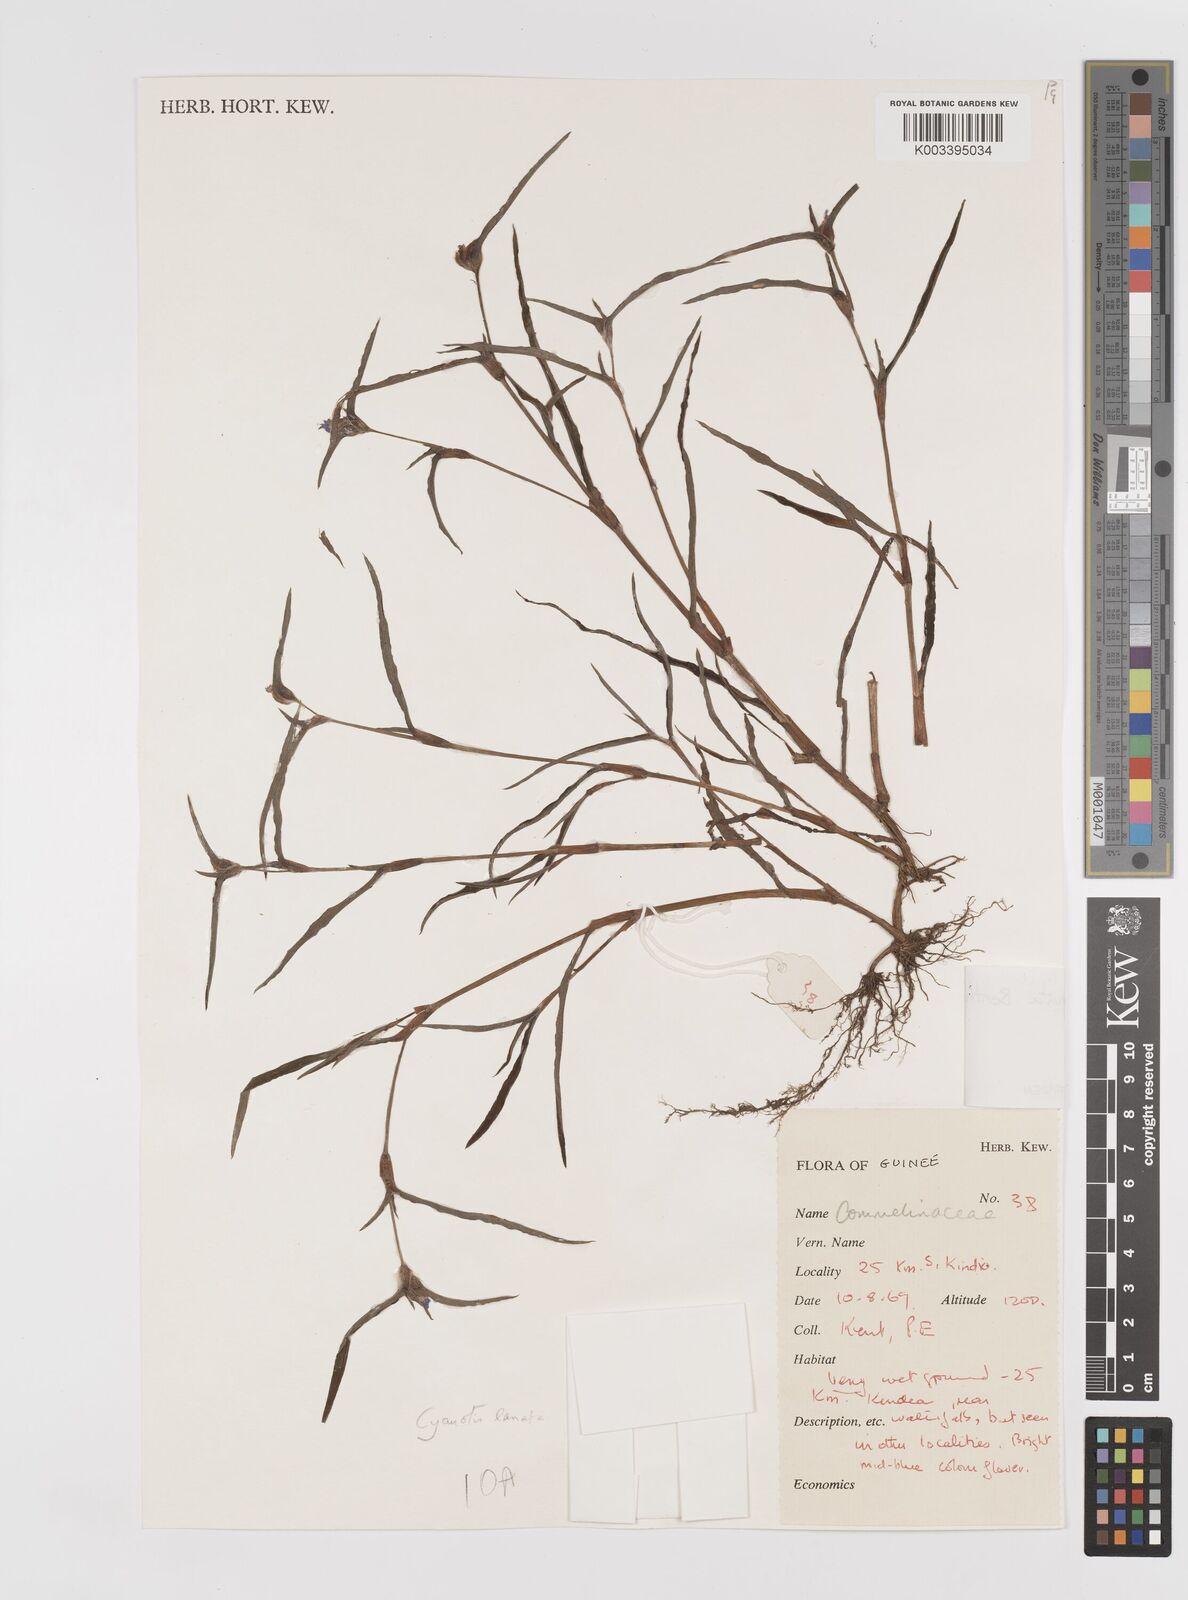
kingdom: Plantae
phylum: Tracheophyta
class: Liliopsida
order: Commelinales
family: Commelinaceae
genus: Cyanotis
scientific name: Cyanotis lanata
